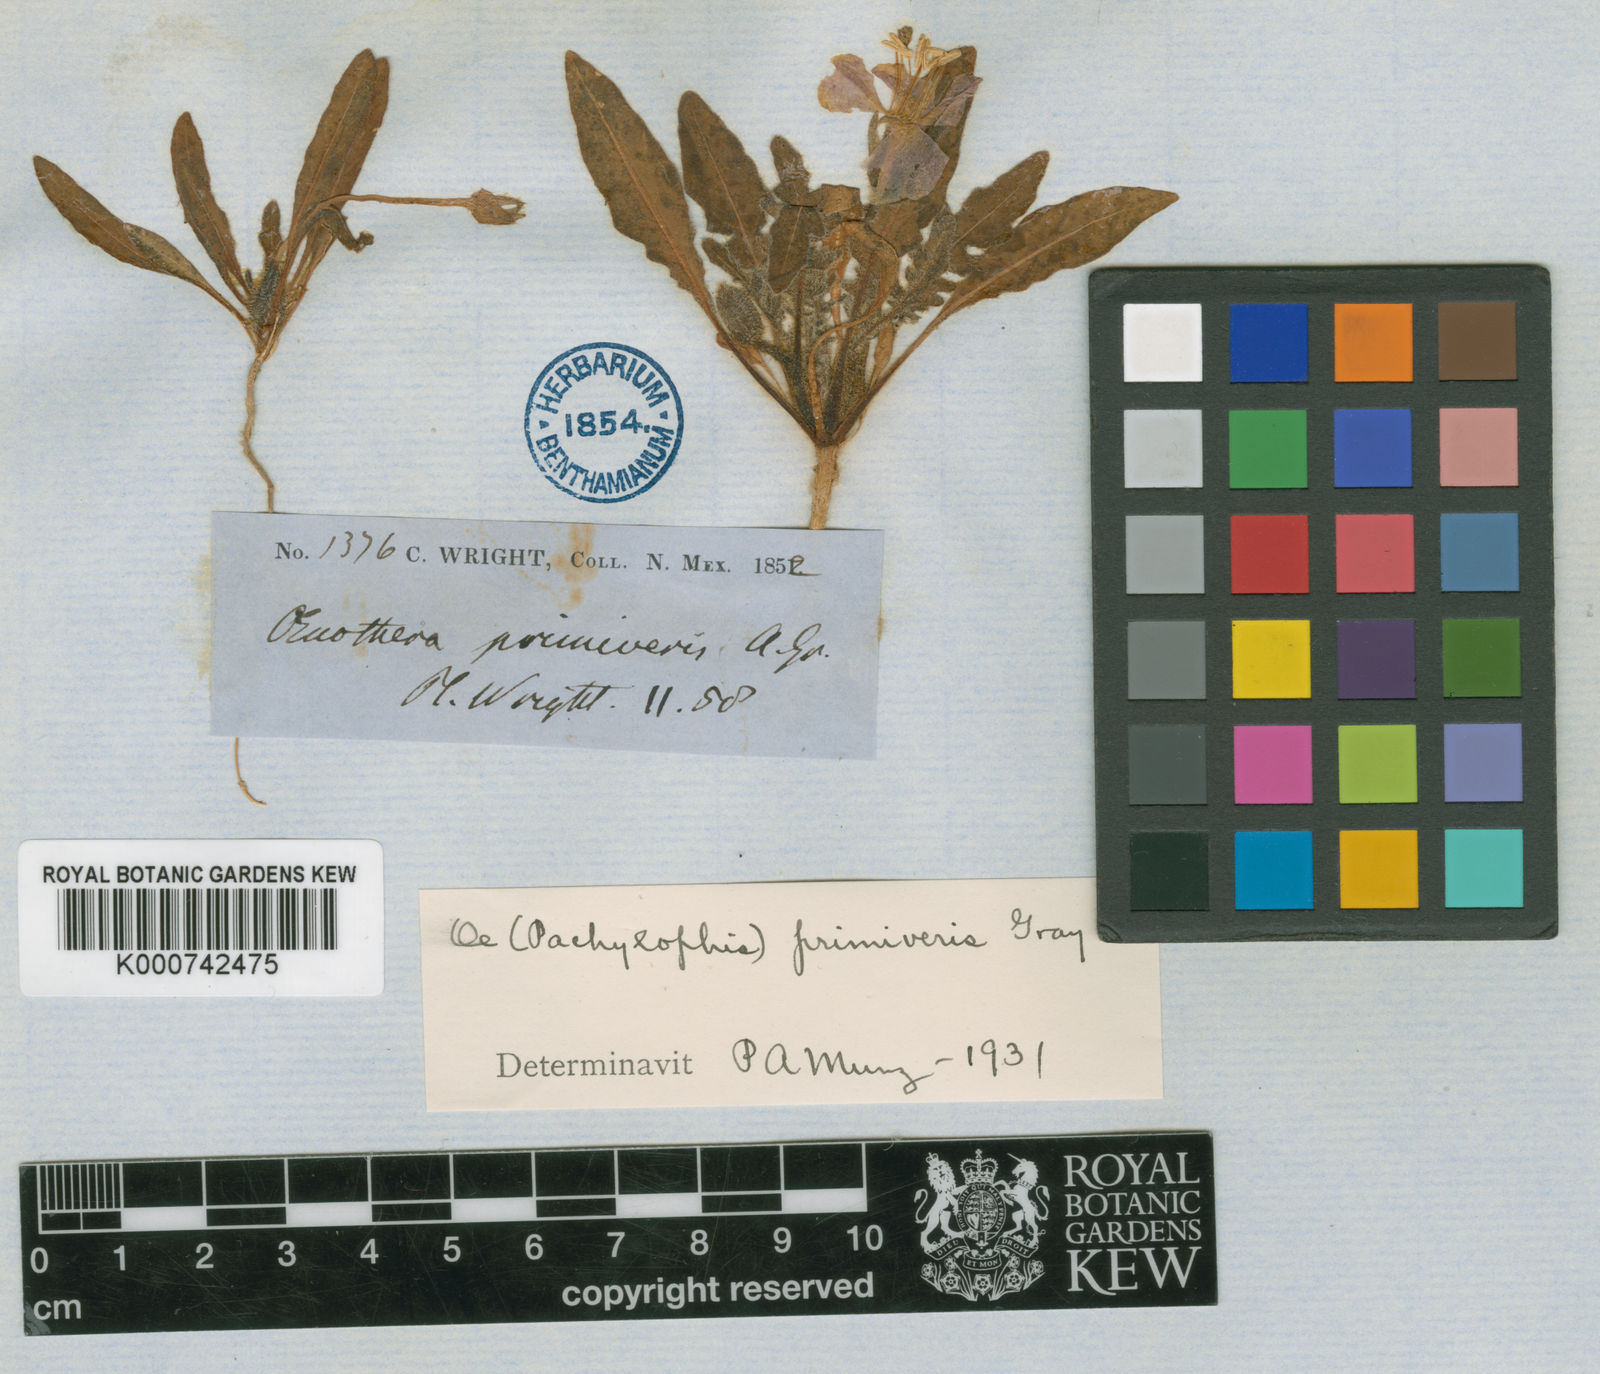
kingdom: Plantae
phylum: Tracheophyta
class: Magnoliopsida
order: Myrtales
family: Onagraceae
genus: Oenothera
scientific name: Oenothera primiveris
